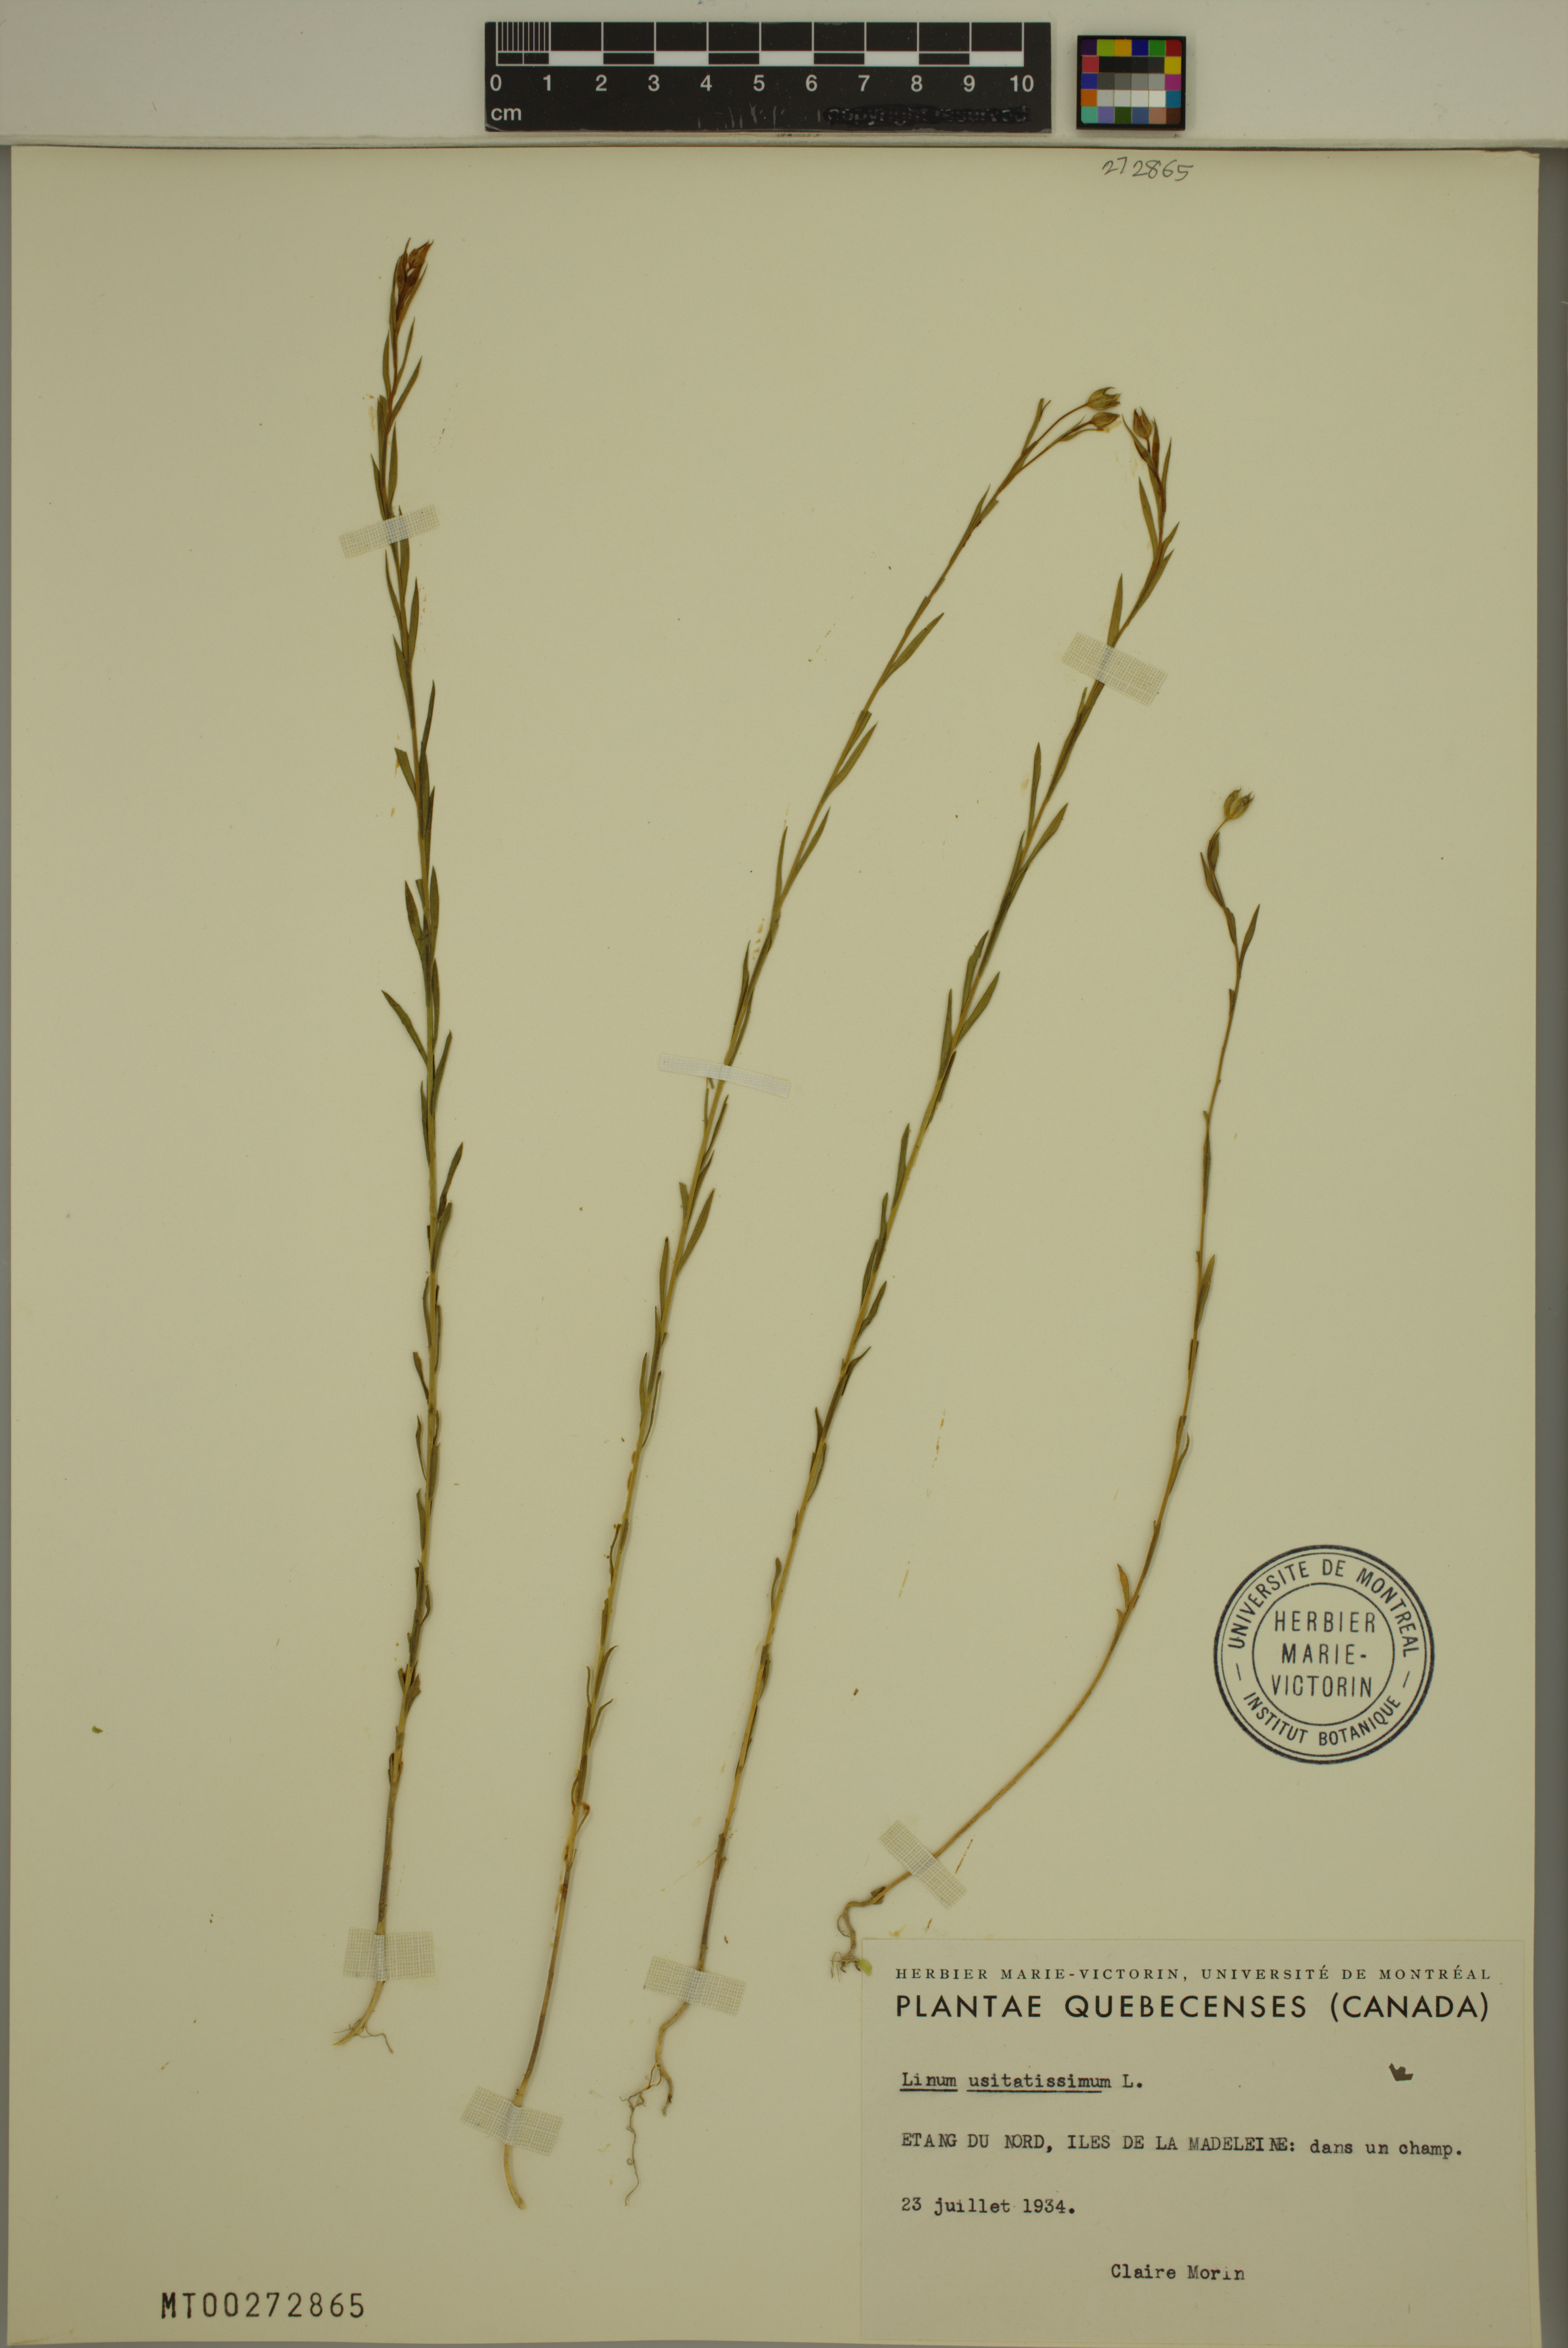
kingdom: Plantae
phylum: Tracheophyta
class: Magnoliopsida
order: Malpighiales
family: Linaceae
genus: Linum
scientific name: Linum usitatissimum
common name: Flax
